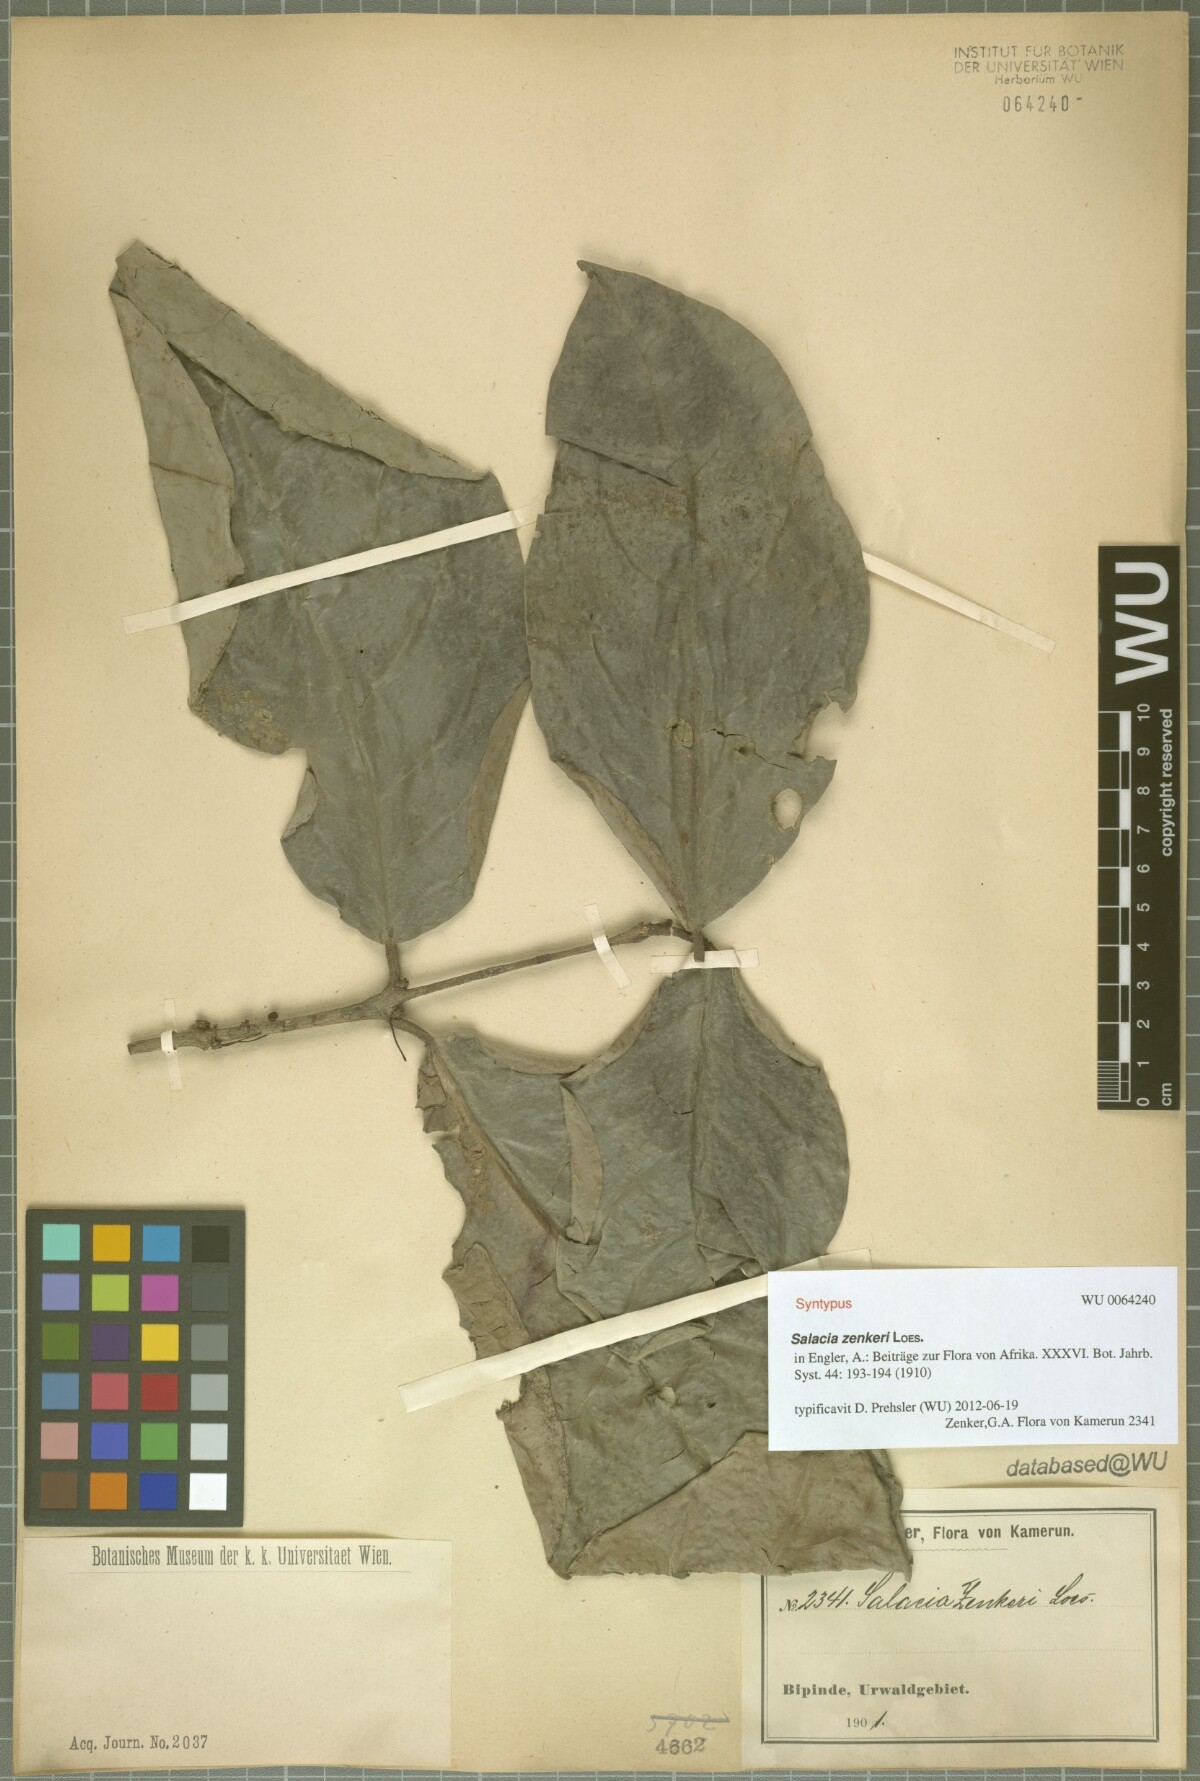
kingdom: Plantae
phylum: Tracheophyta
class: Magnoliopsida
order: Celastrales
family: Celastraceae
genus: Salacia
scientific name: Salacia zenkeri
